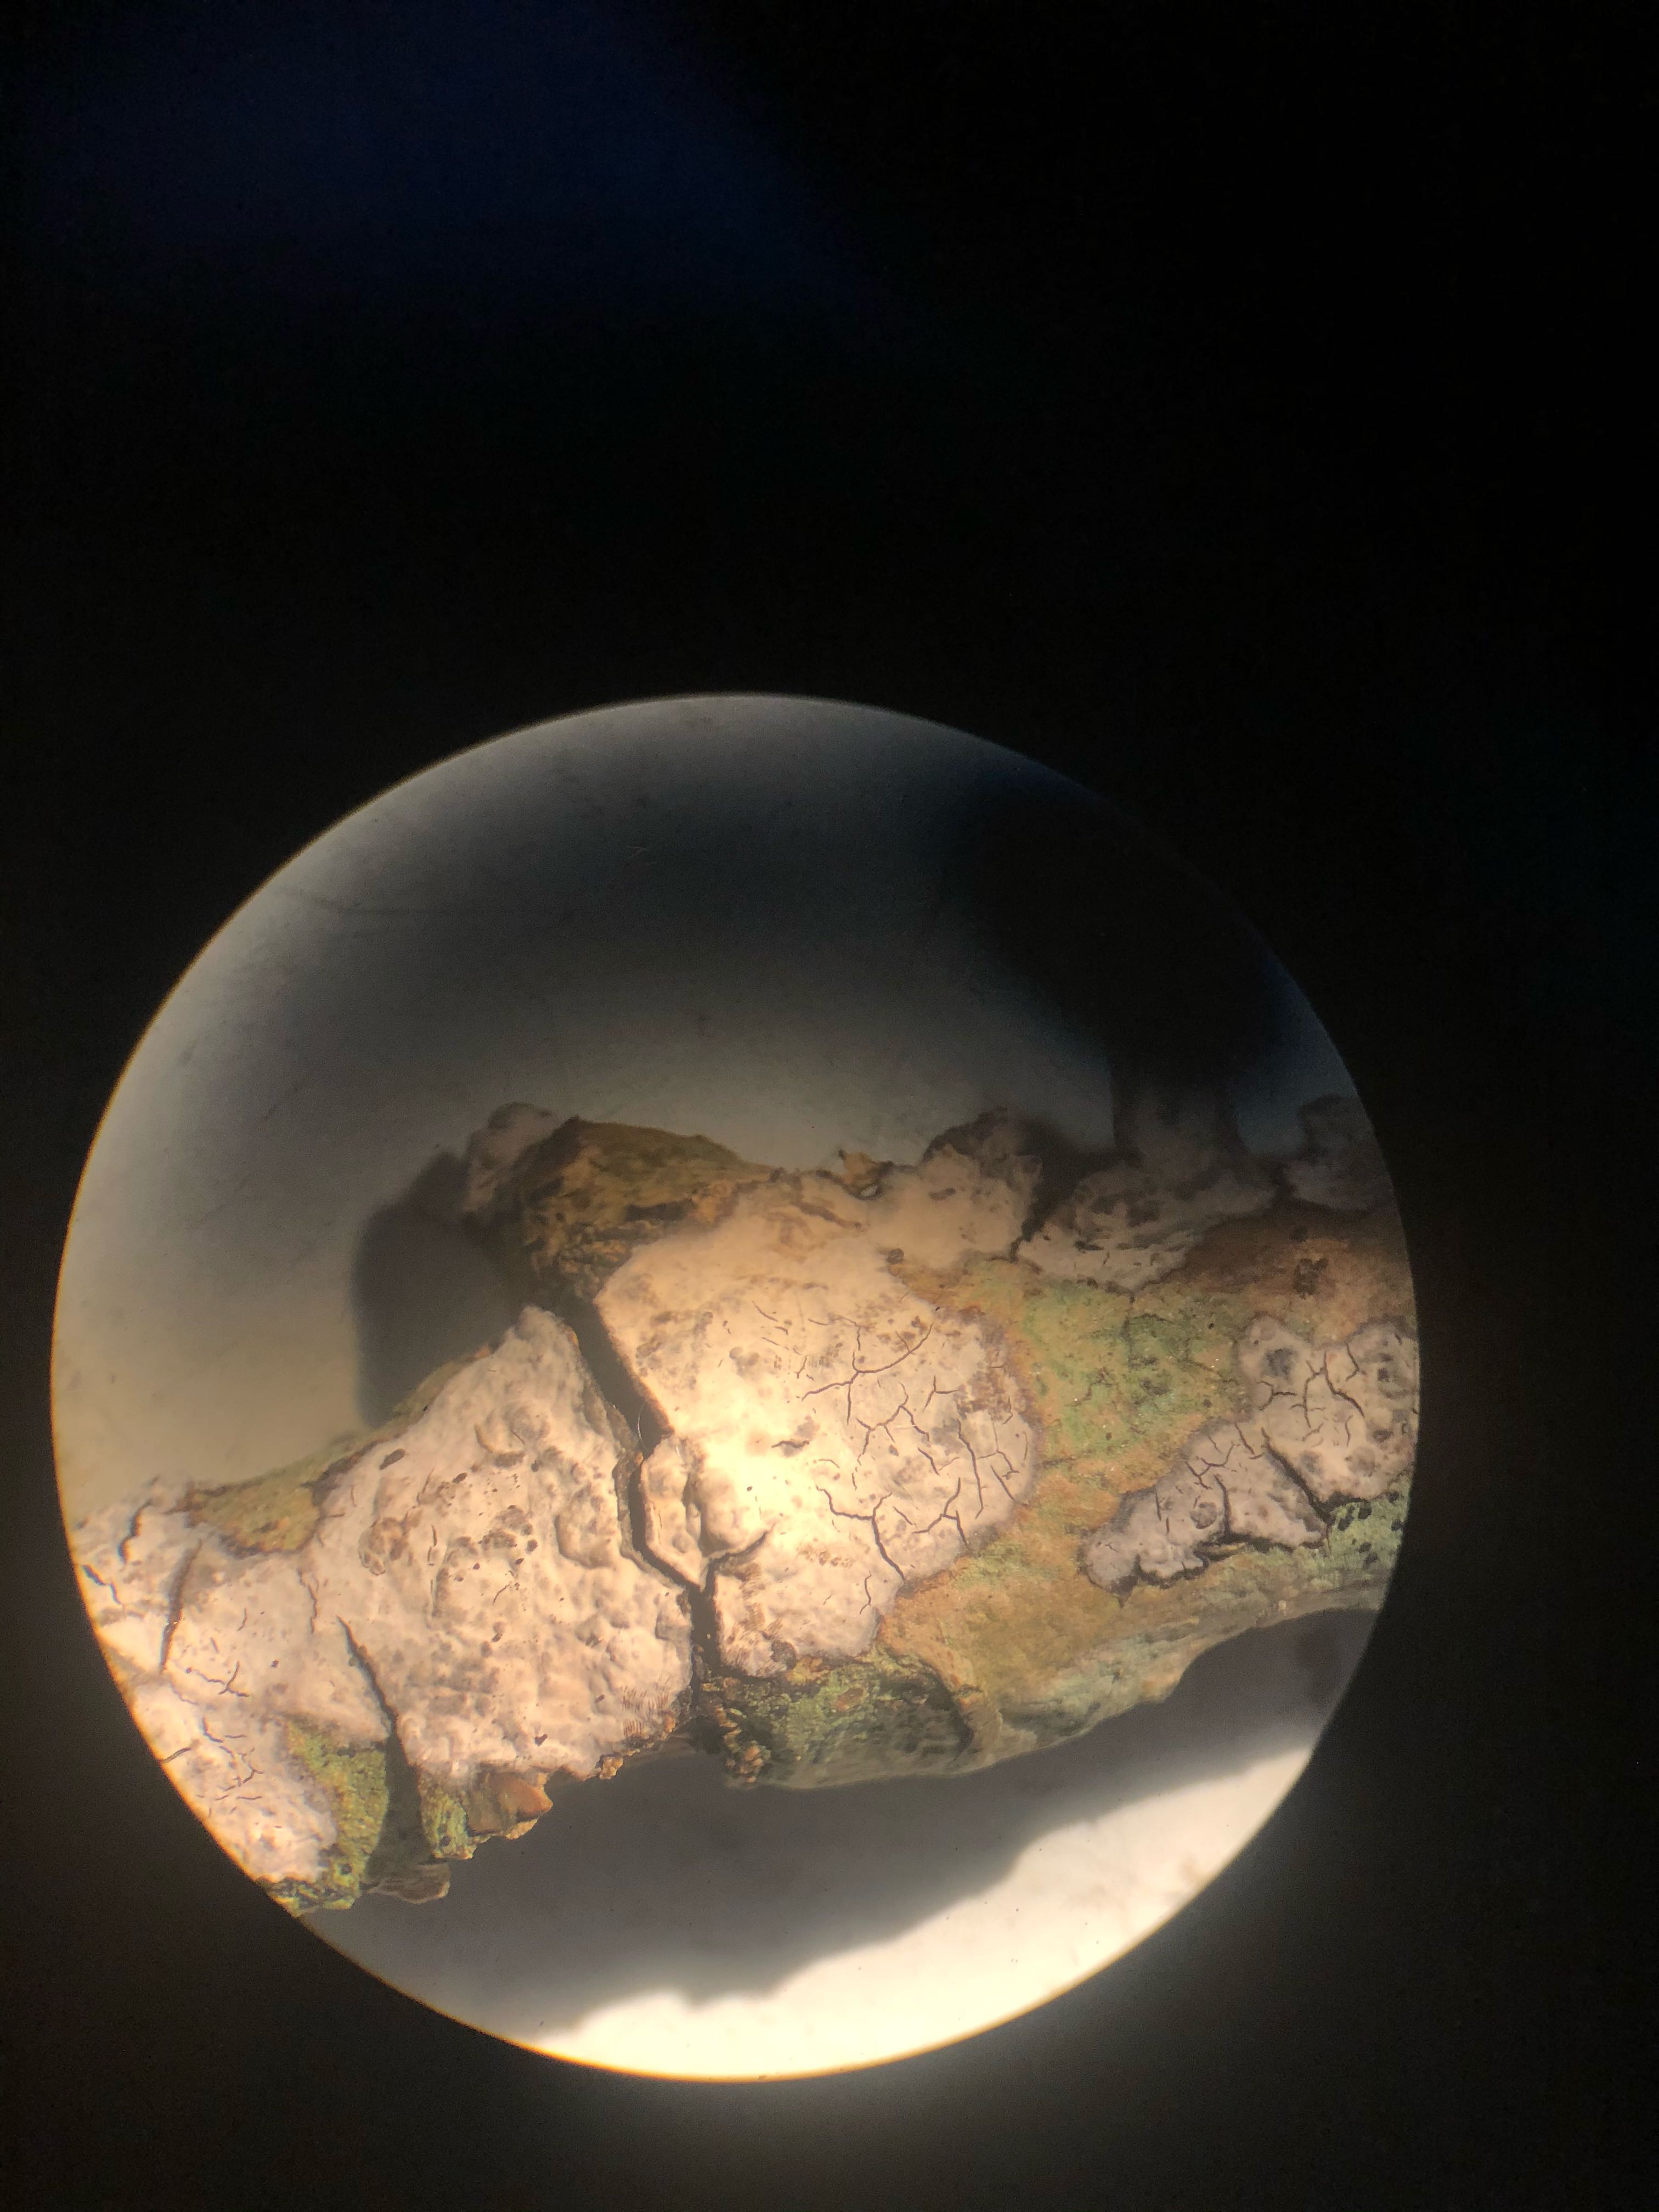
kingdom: Fungi
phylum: Basidiomycota
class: Agaricomycetes
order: Russulales
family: Peniophoraceae
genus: Peniophora
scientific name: Peniophora limitata
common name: mørkrandet voksskind
